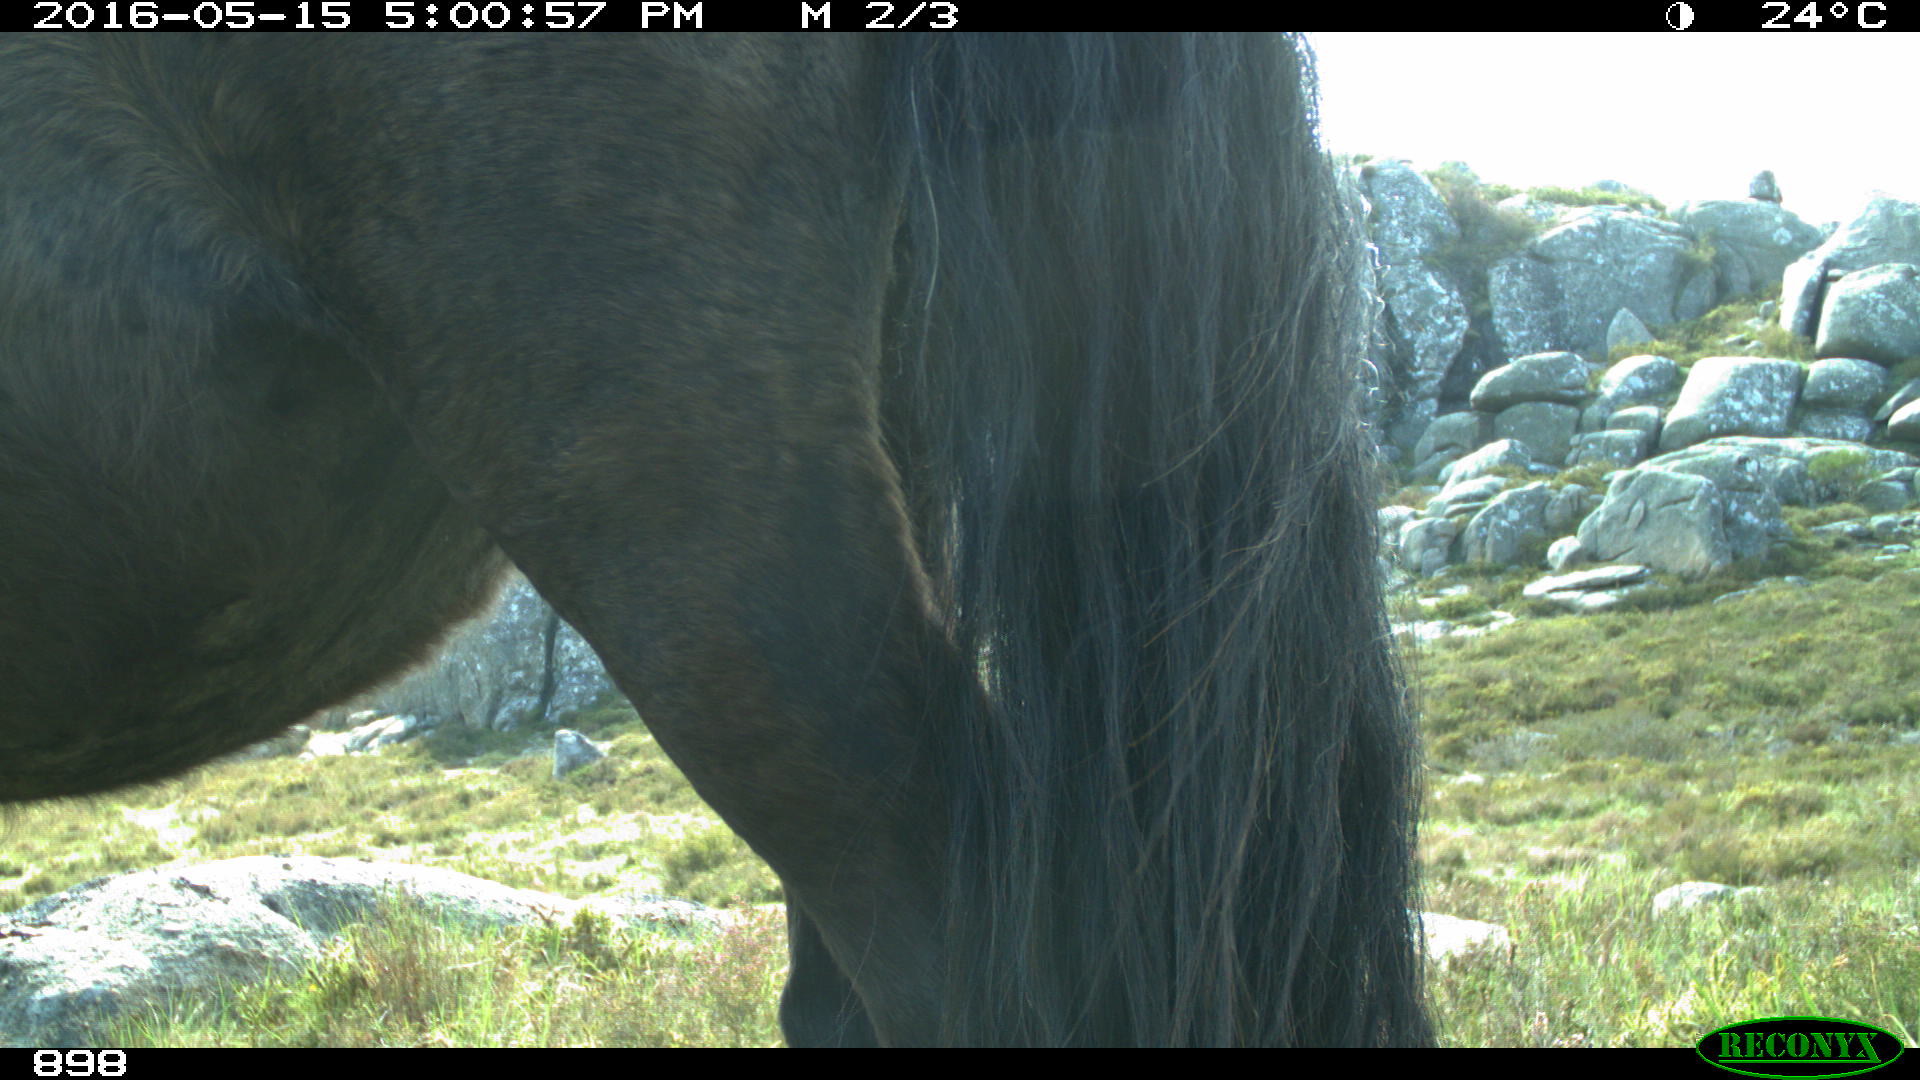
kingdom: Animalia
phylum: Chordata
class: Mammalia
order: Perissodactyla
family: Equidae
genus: Equus
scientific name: Equus caballus
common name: Horse
